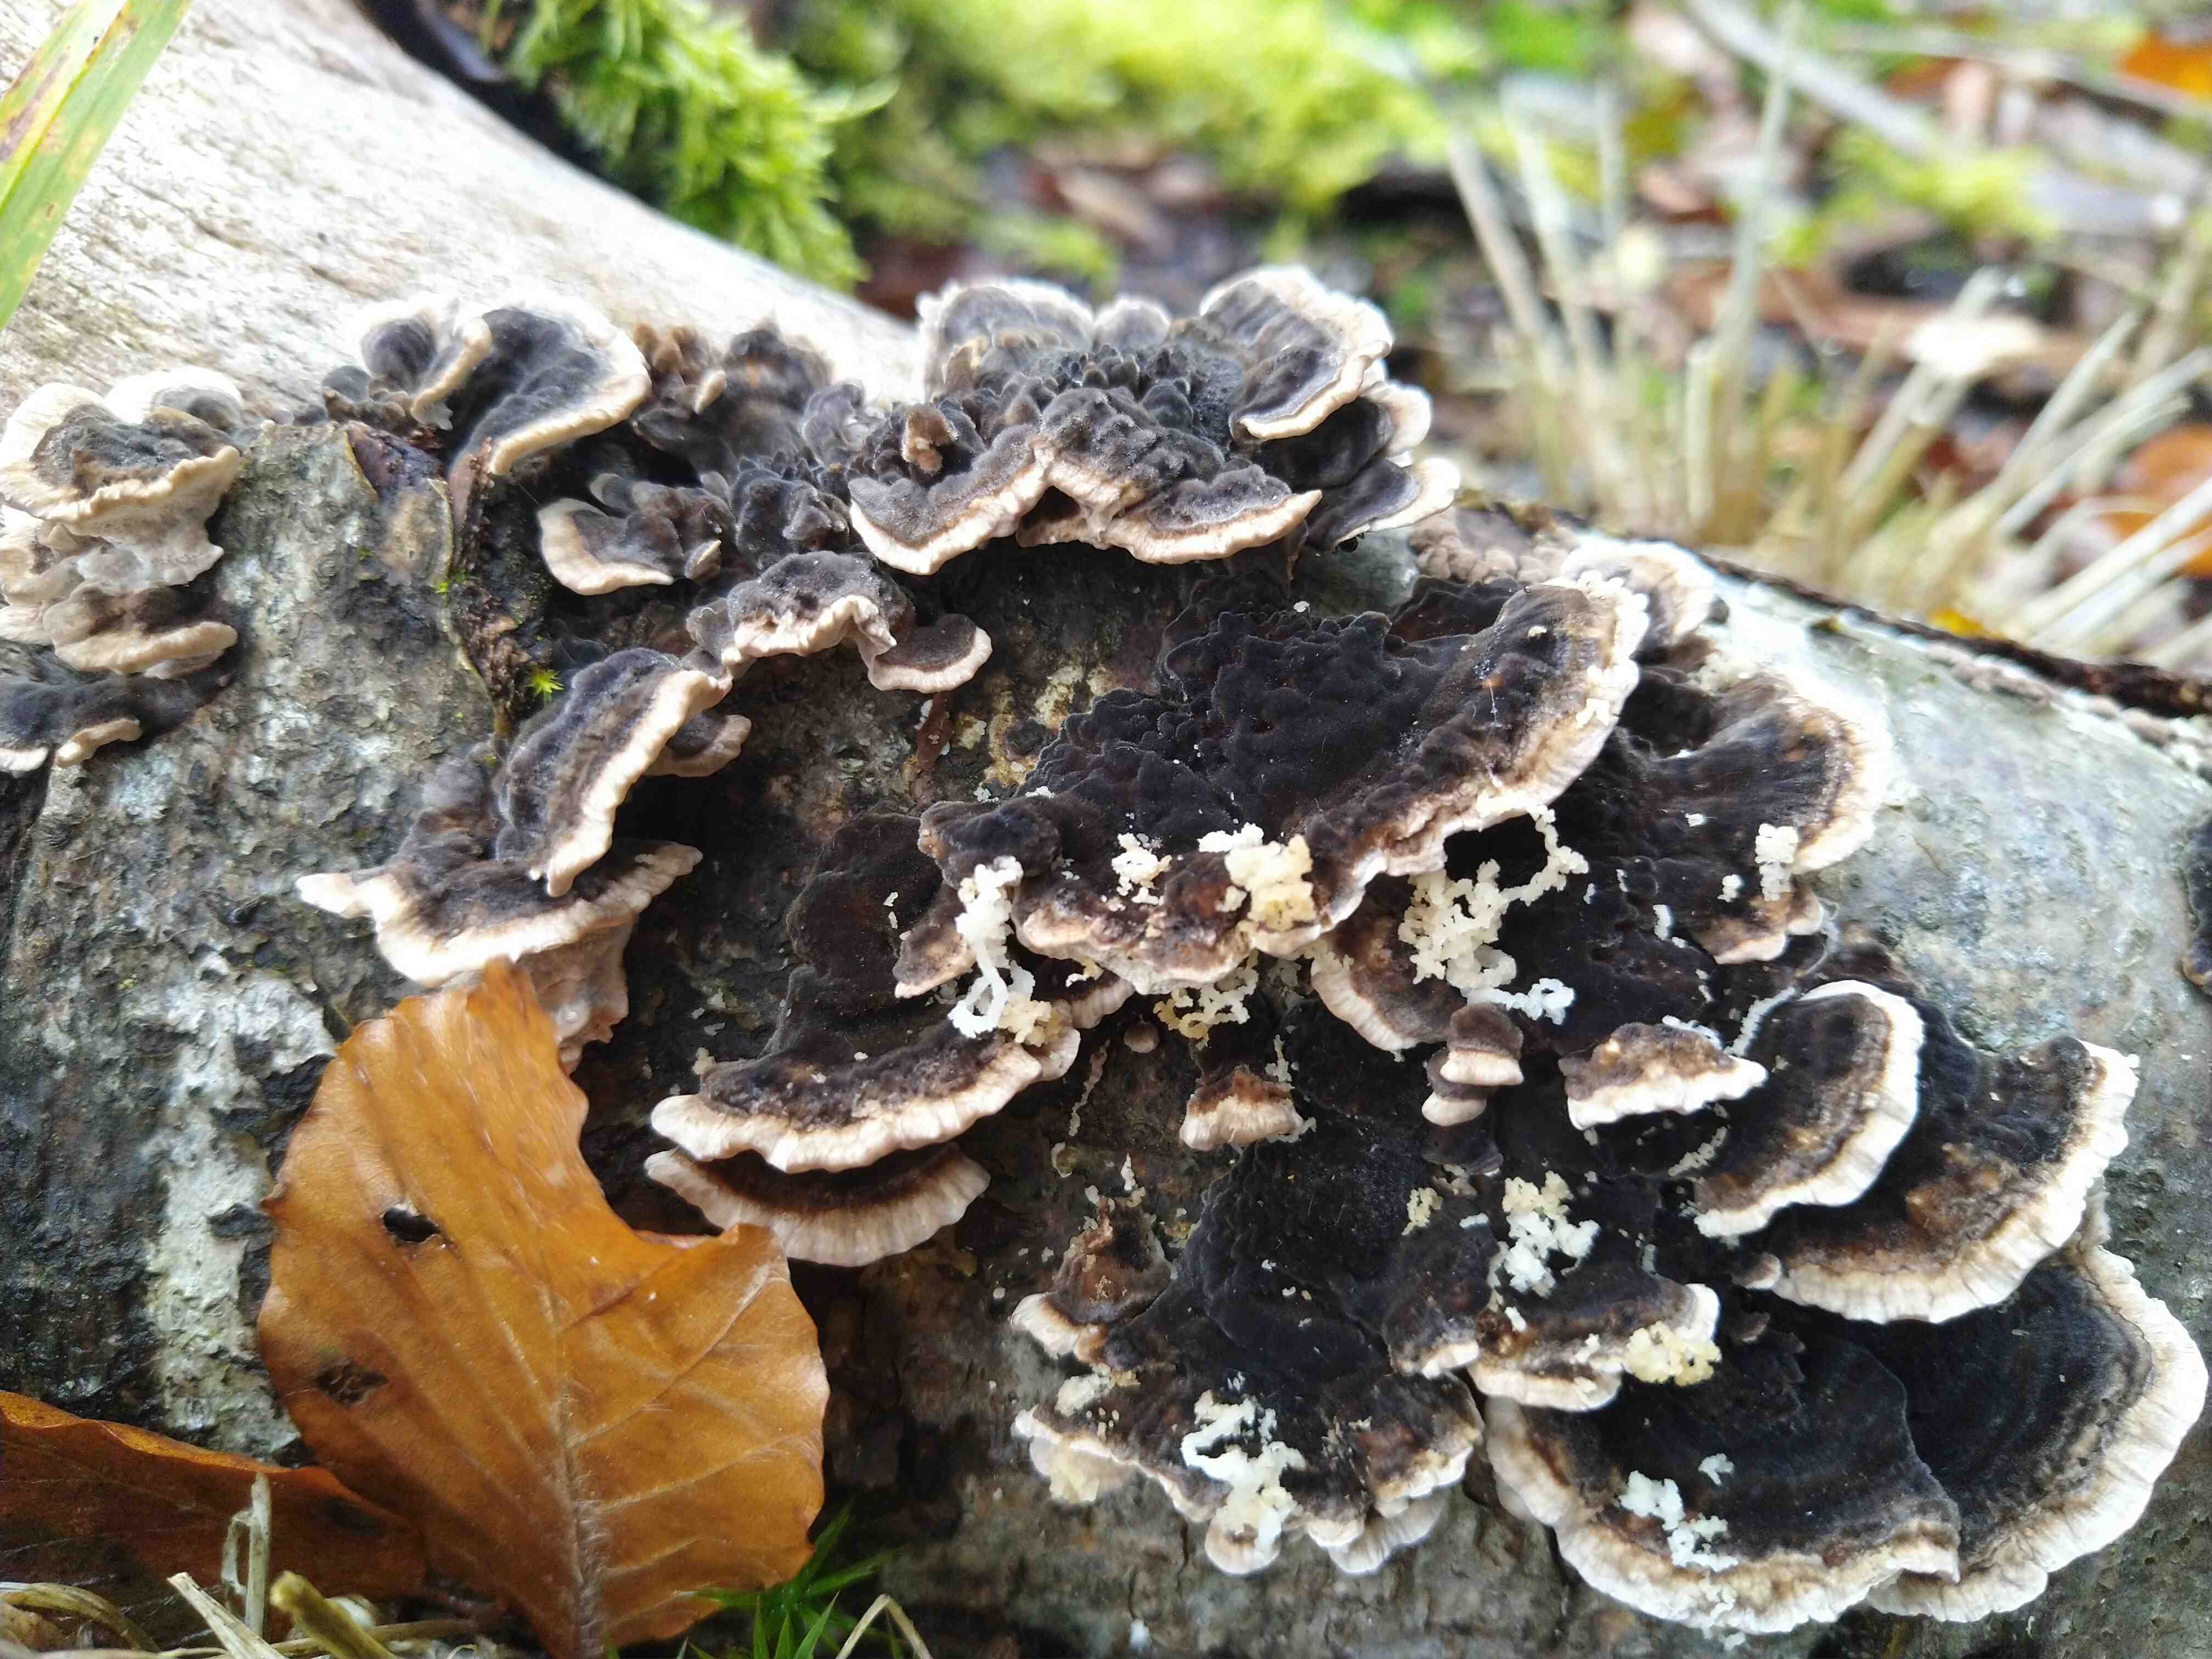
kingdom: Fungi
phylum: Basidiomycota
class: Agaricomycetes
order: Polyporales
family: Polyporaceae
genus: Trametes
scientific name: Trametes versicolor
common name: broget læderporesvamp
